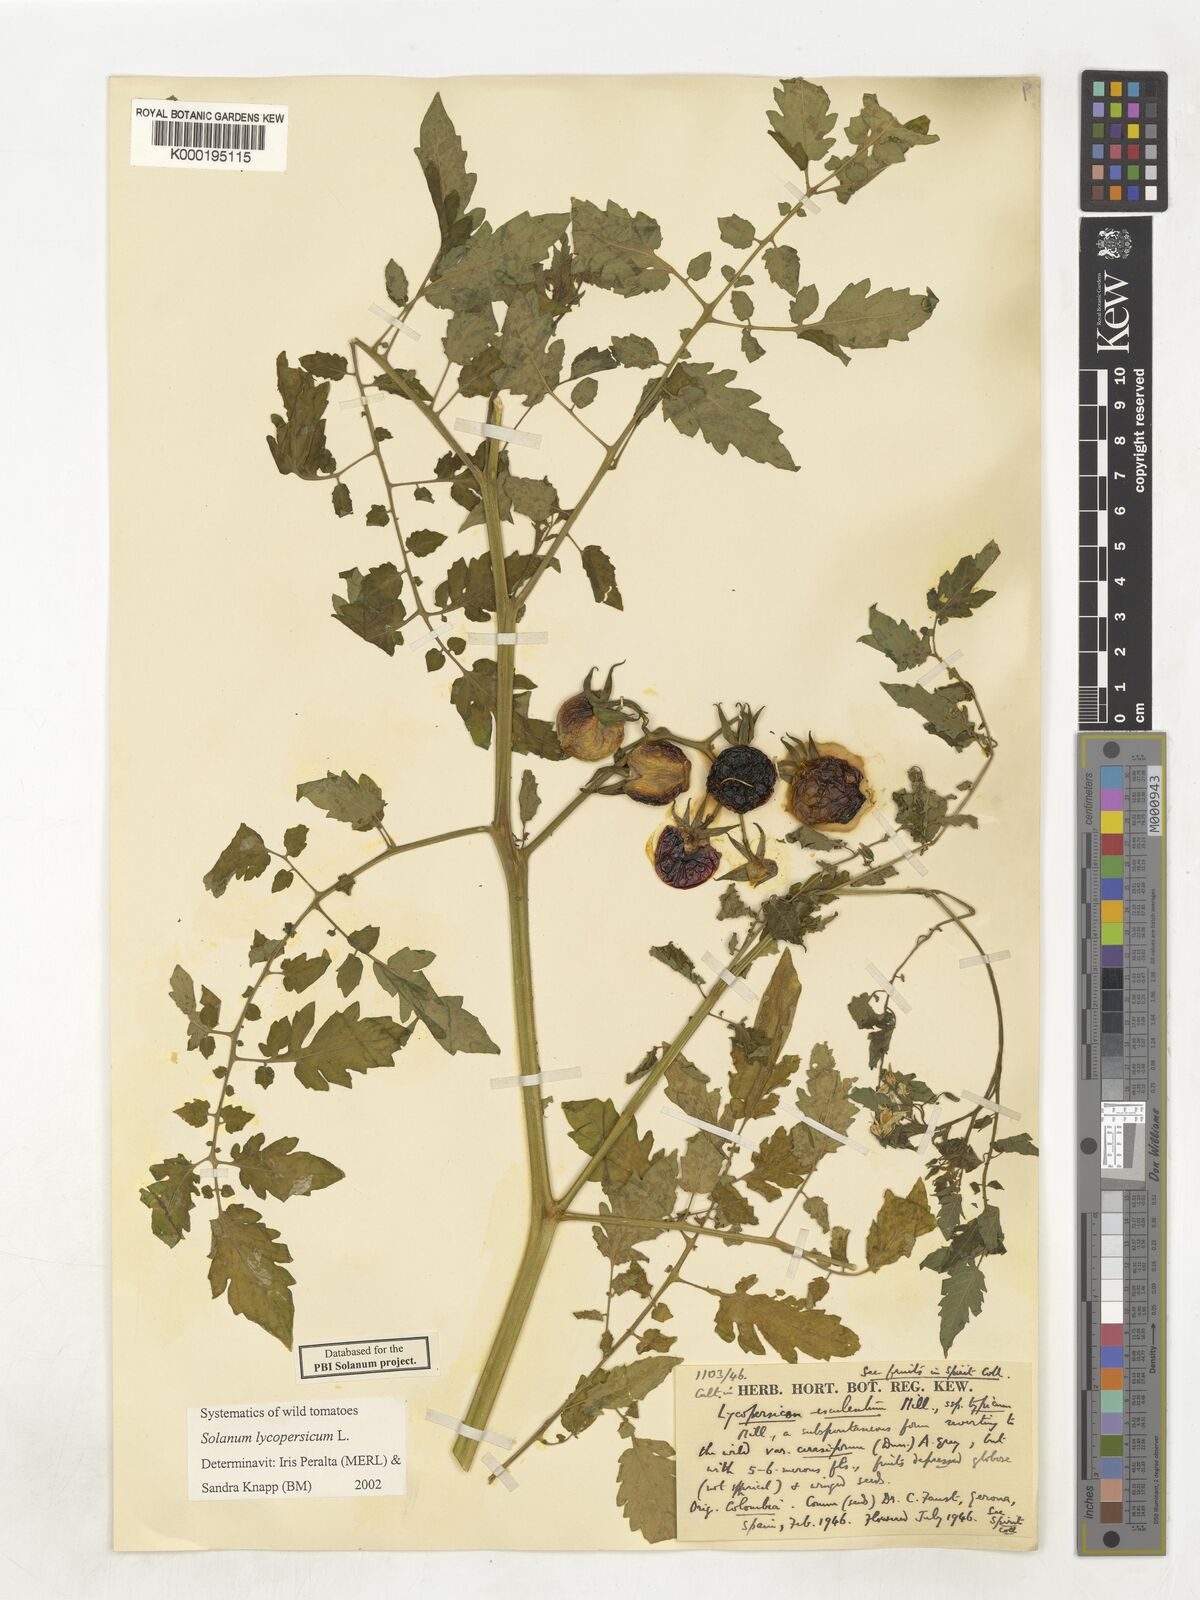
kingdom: Plantae
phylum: Tracheophyta
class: Magnoliopsida
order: Solanales
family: Solanaceae
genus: Solanum
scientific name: Solanum lycopersicum
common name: Garden tomato
